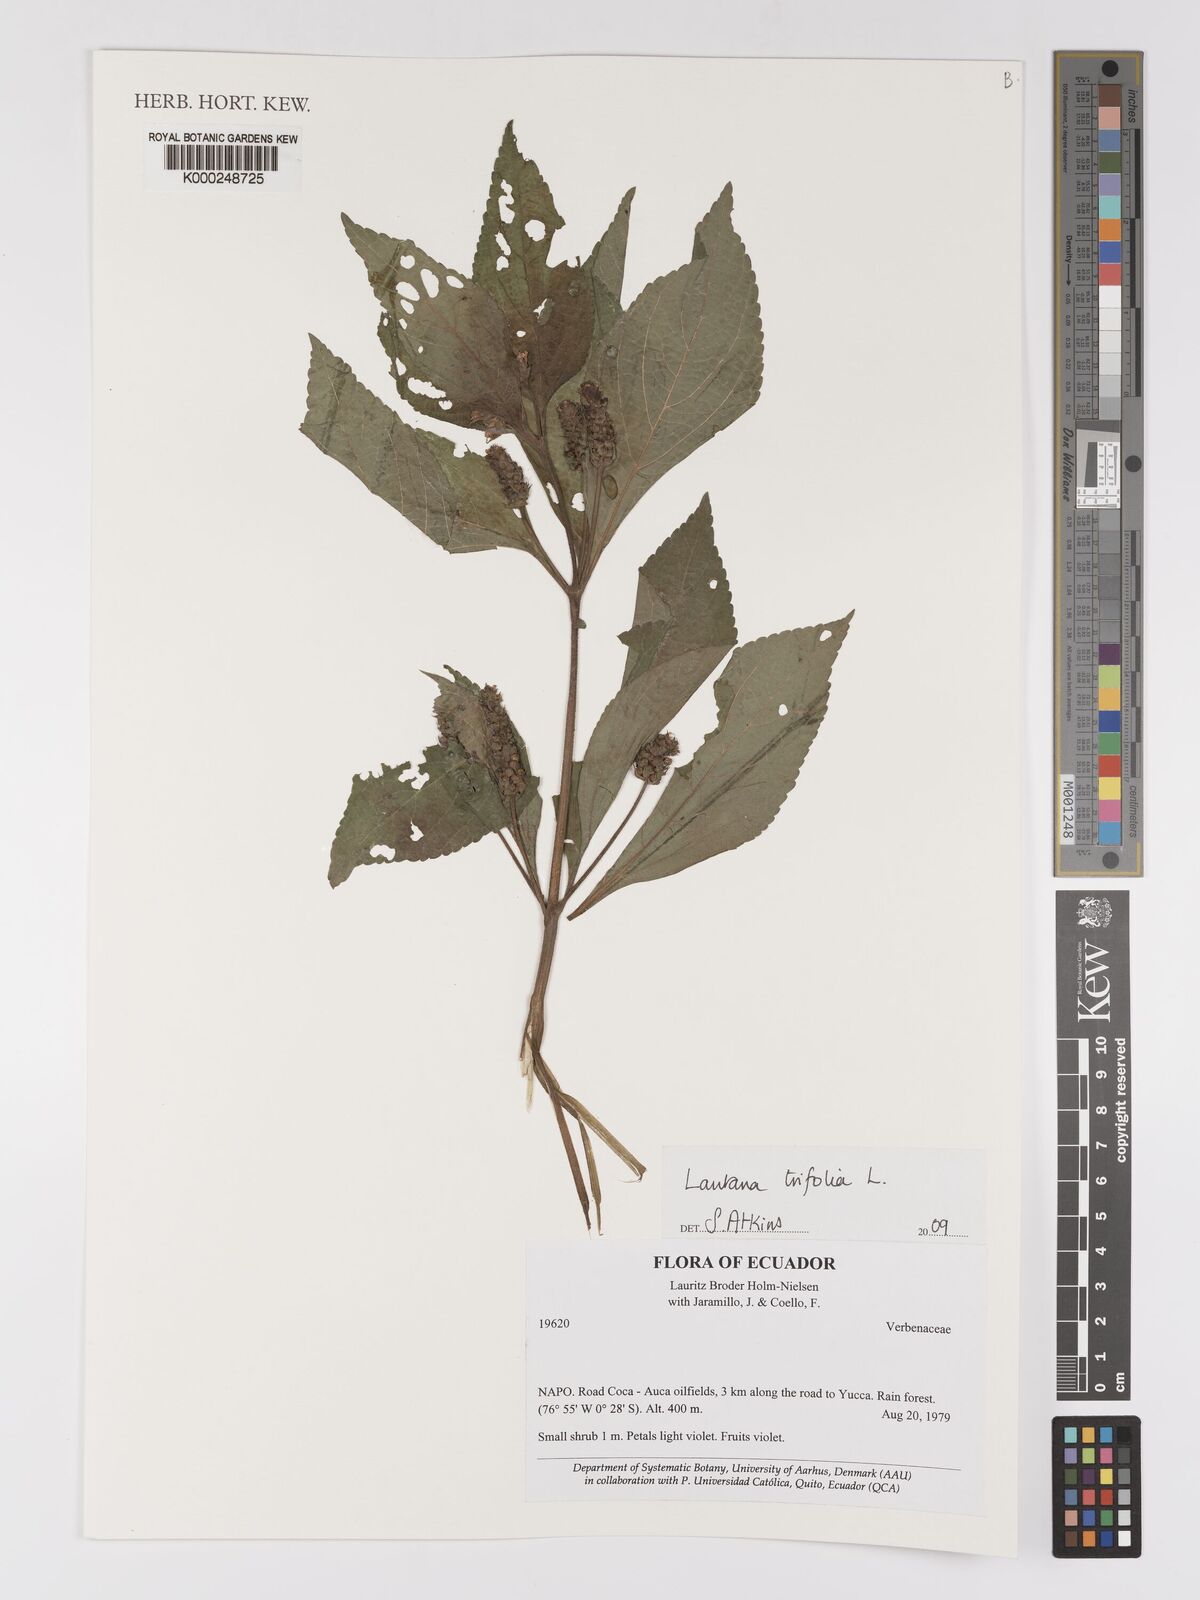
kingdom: Plantae
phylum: Tracheophyta
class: Magnoliopsida
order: Lamiales
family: Verbenaceae
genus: Lantana
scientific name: Lantana trifolia
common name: Sweet-sage
